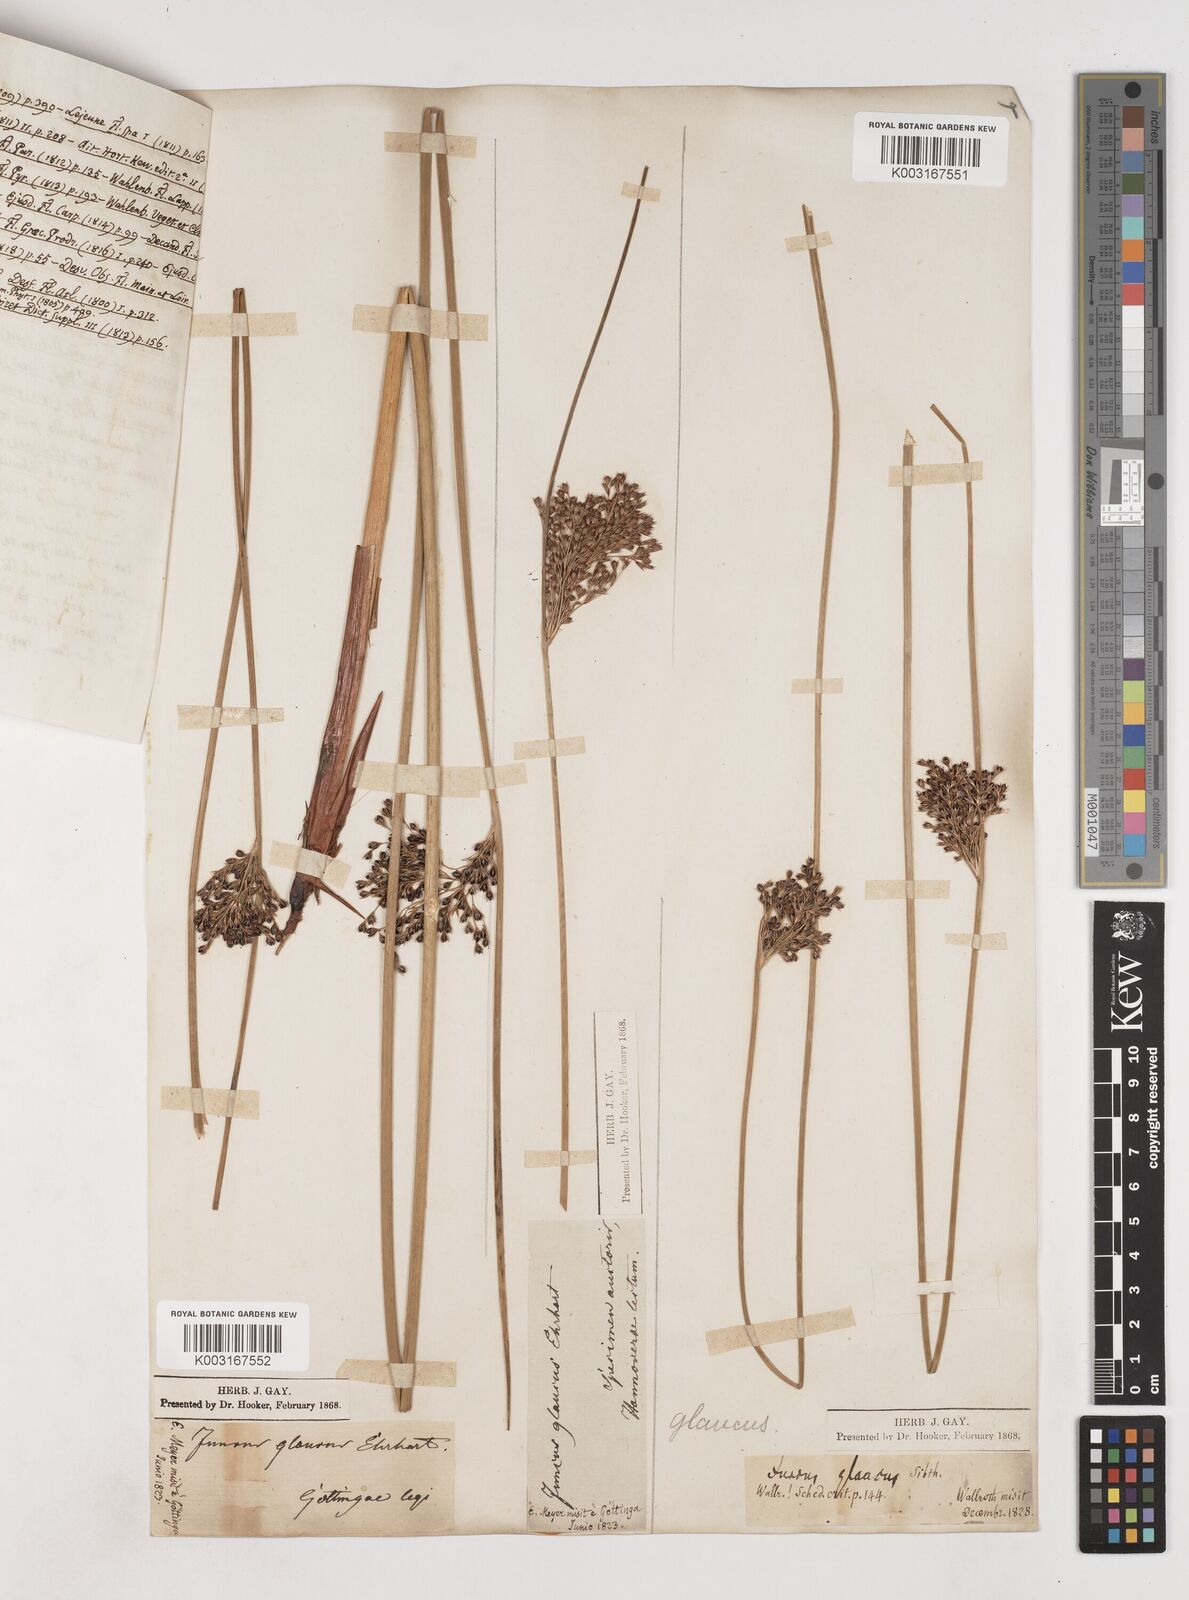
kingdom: Plantae
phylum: Tracheophyta
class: Liliopsida
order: Poales
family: Juncaceae
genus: Juncus
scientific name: Juncus inflexus
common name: Hard rush
